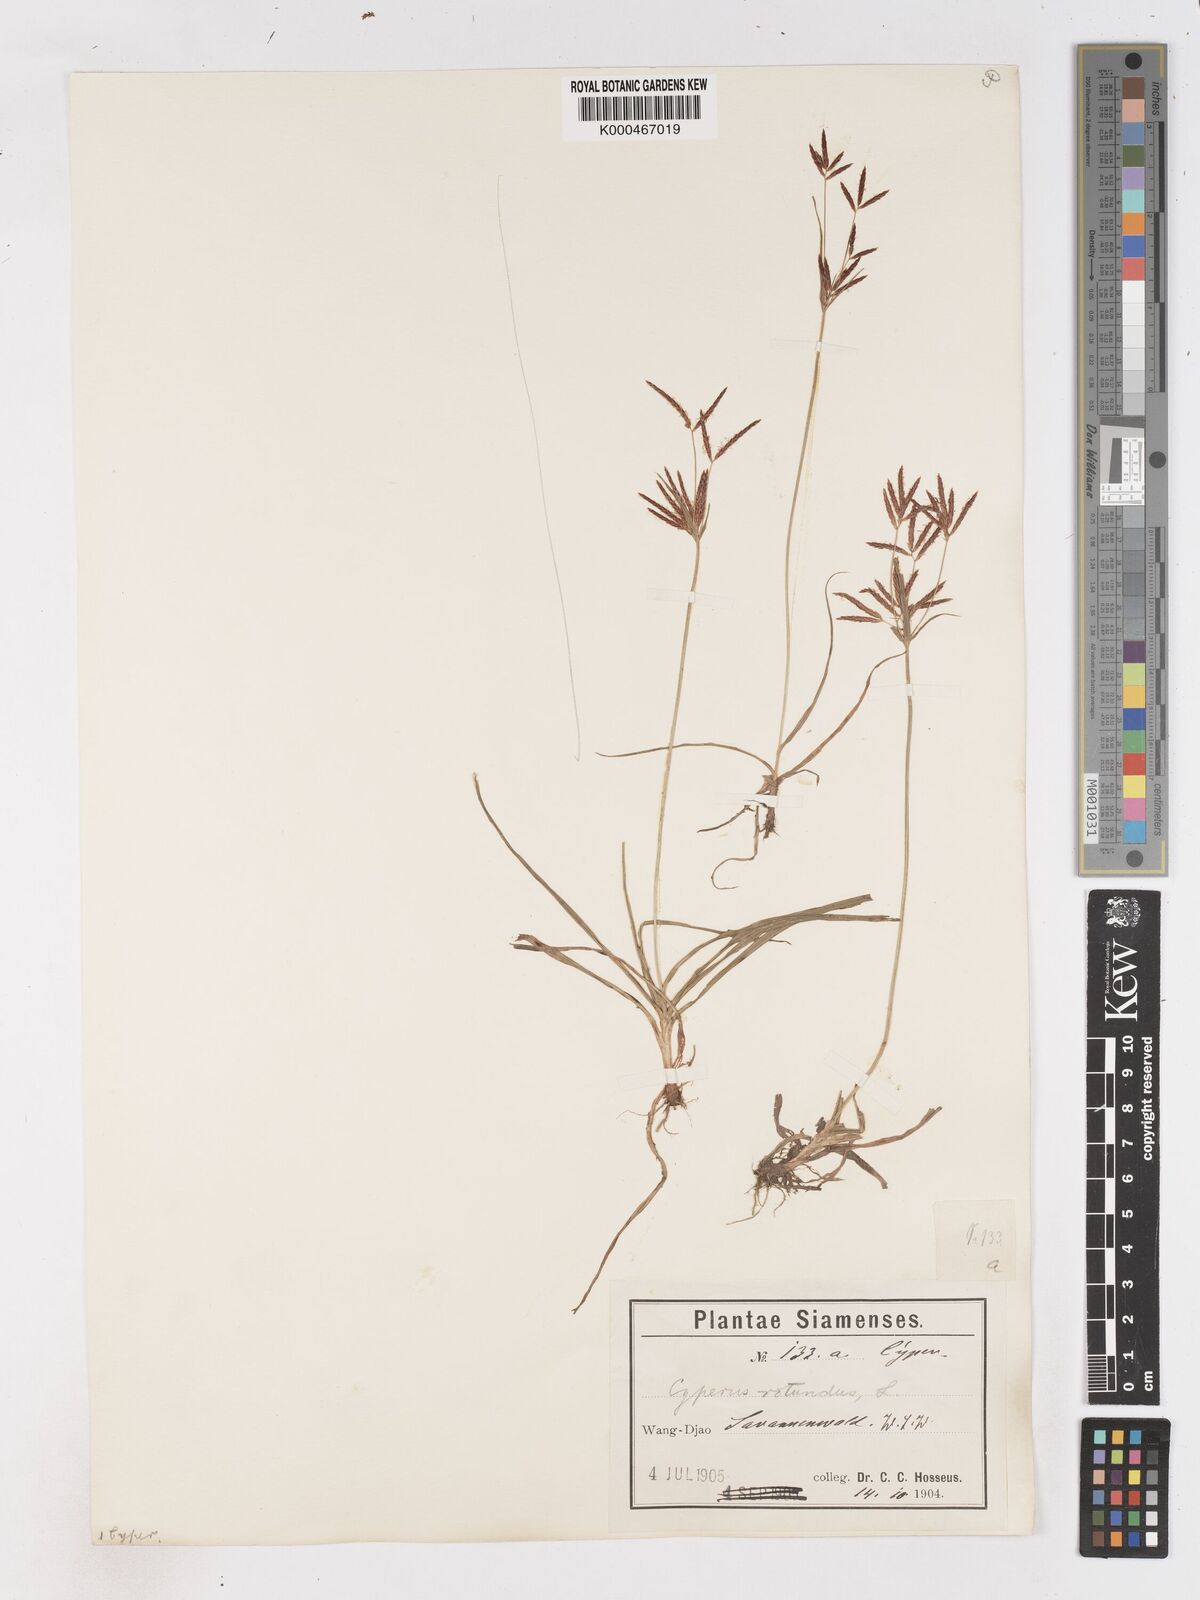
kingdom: Plantae
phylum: Tracheophyta
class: Liliopsida
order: Poales
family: Cyperaceae
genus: Cyperus
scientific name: Cyperus rotundus
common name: Nutgrass
